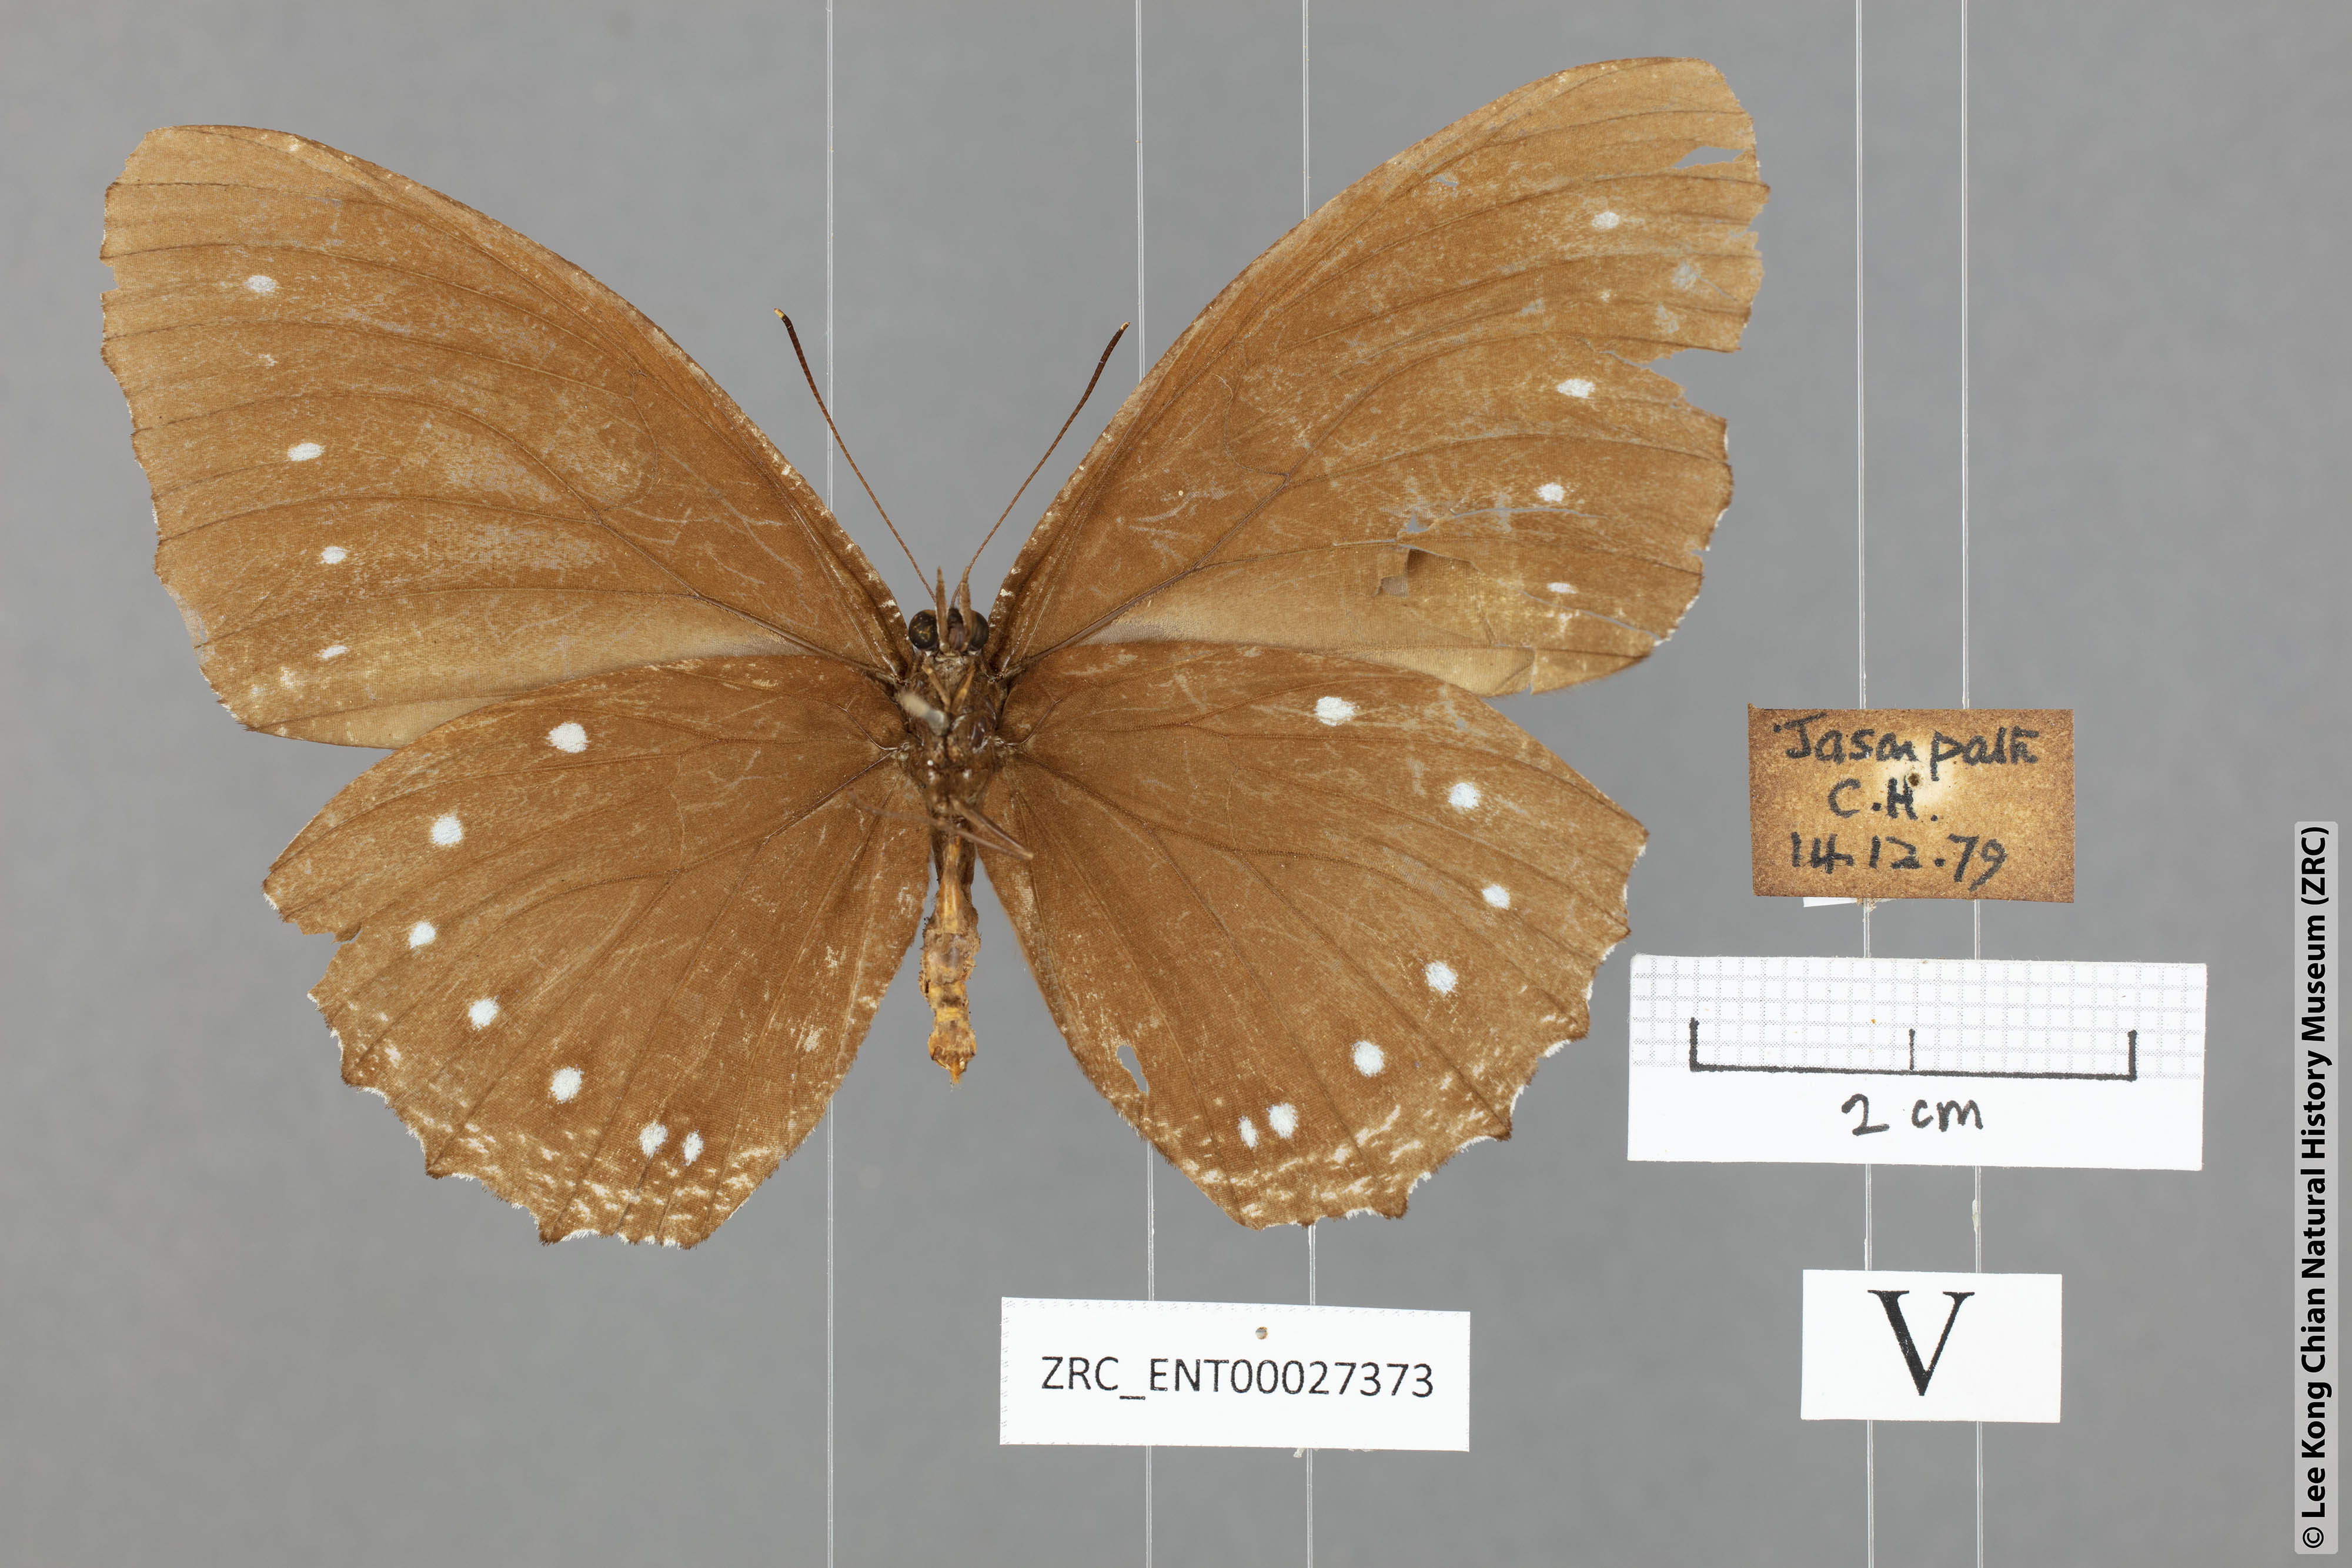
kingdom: Animalia
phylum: Arthropoda
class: Insecta
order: Lepidoptera
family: Nymphalidae
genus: Elymnias
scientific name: Elymnias patna
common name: Blue-striped palmfly
